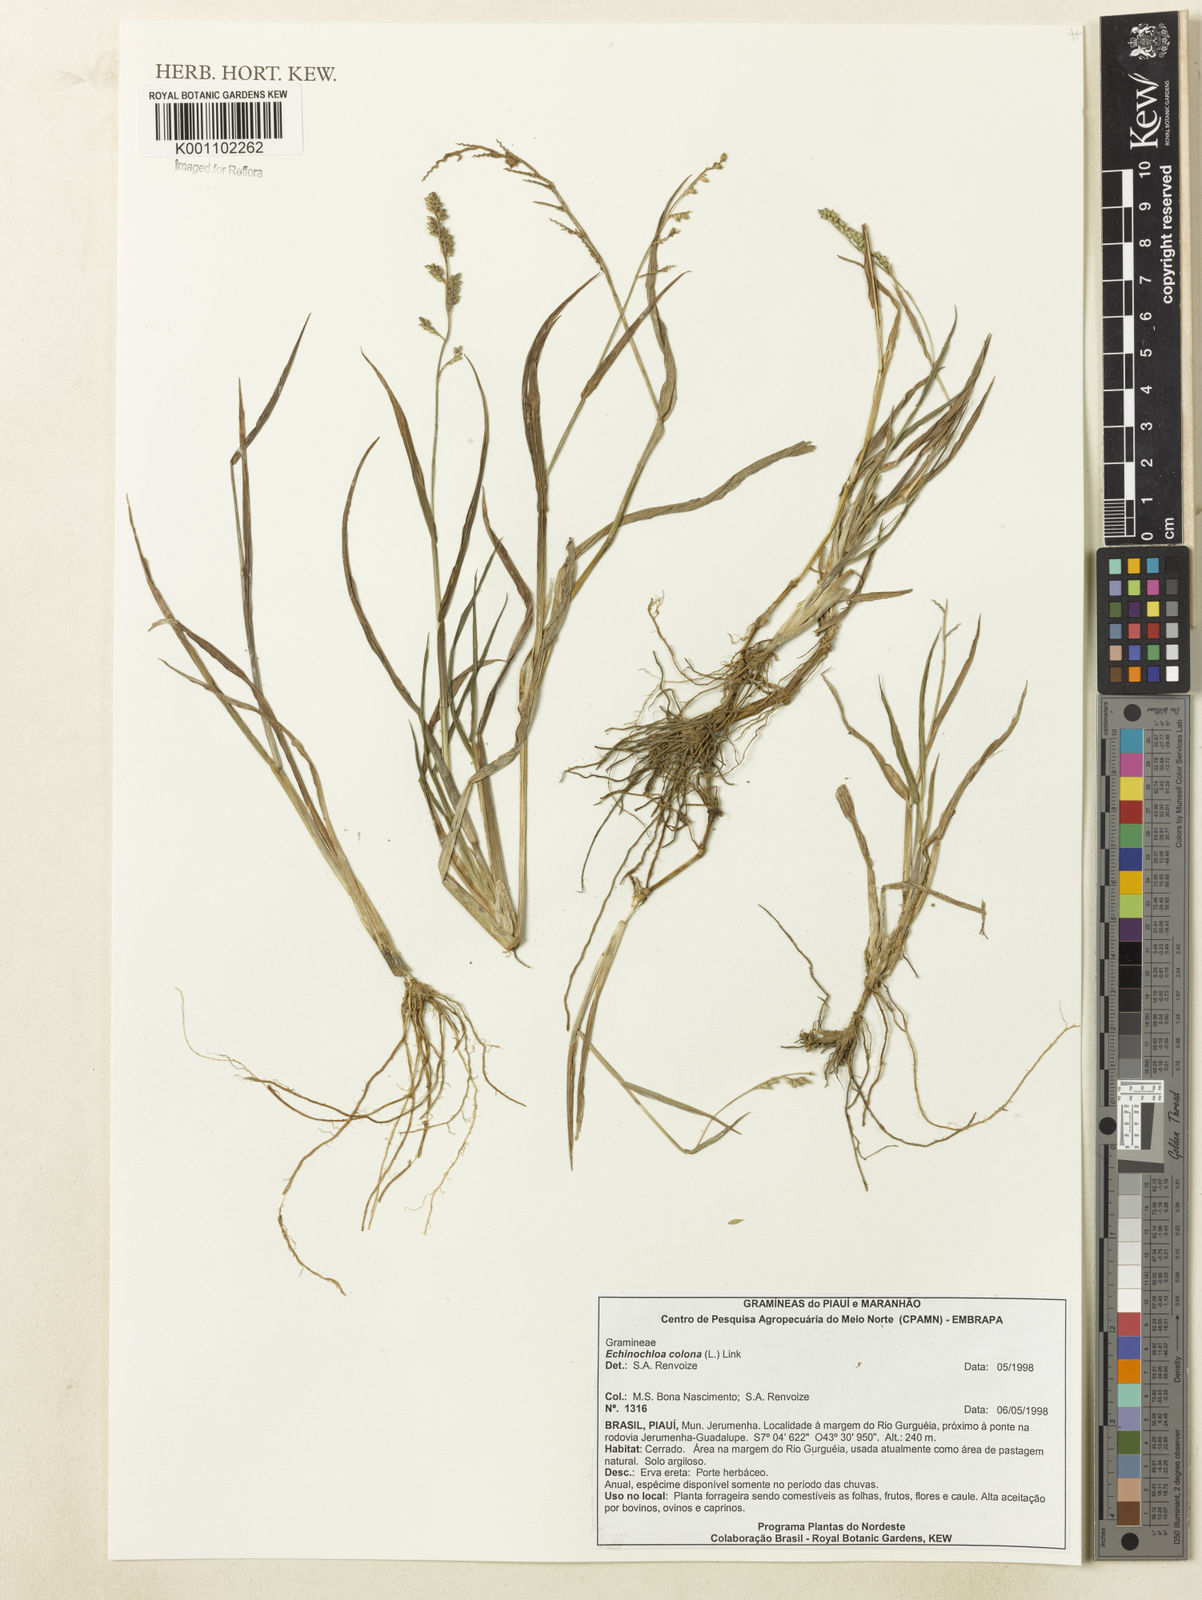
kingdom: Plantae
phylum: Tracheophyta
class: Liliopsida
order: Poales
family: Poaceae
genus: Echinochloa
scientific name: Echinochloa colonum
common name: Jungle rice
